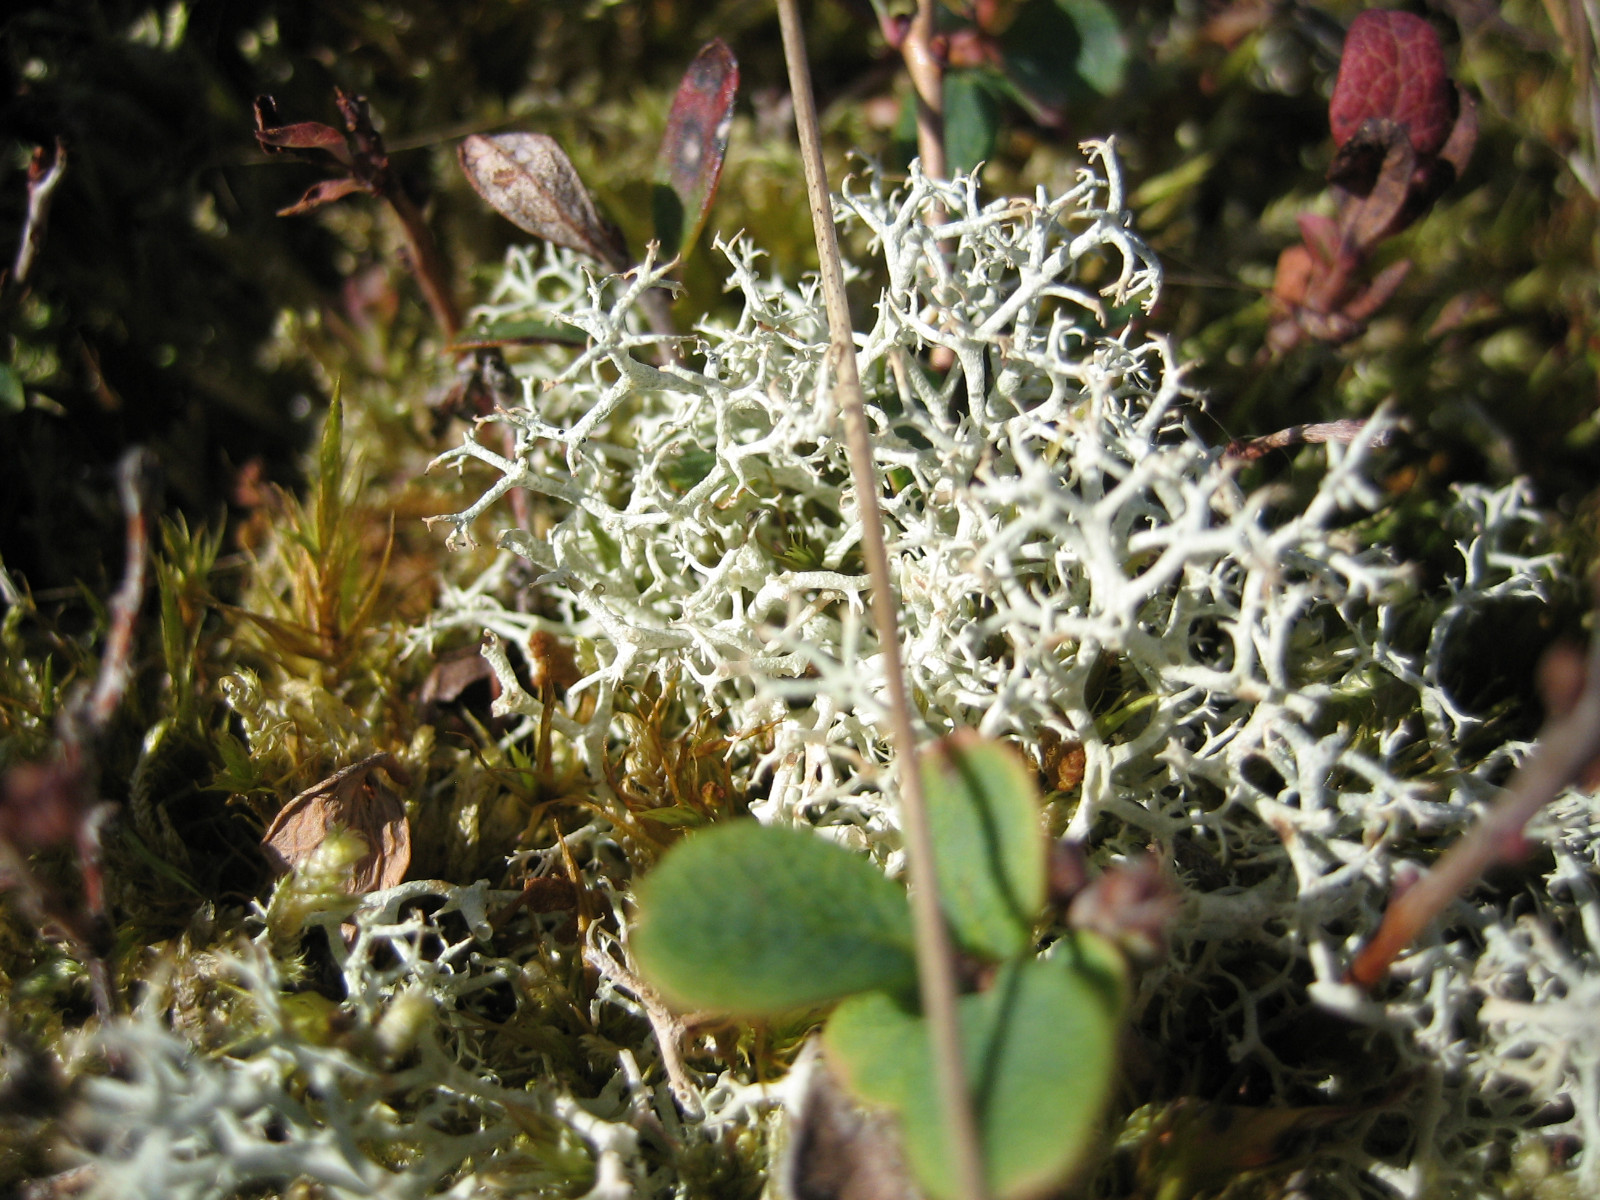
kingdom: Fungi
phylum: Ascomycota
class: Lecanoromycetes
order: Lecanorales
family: Cladoniaceae
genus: Cladonia
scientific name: Cladonia portentosa
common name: hede-rensdyrlav
